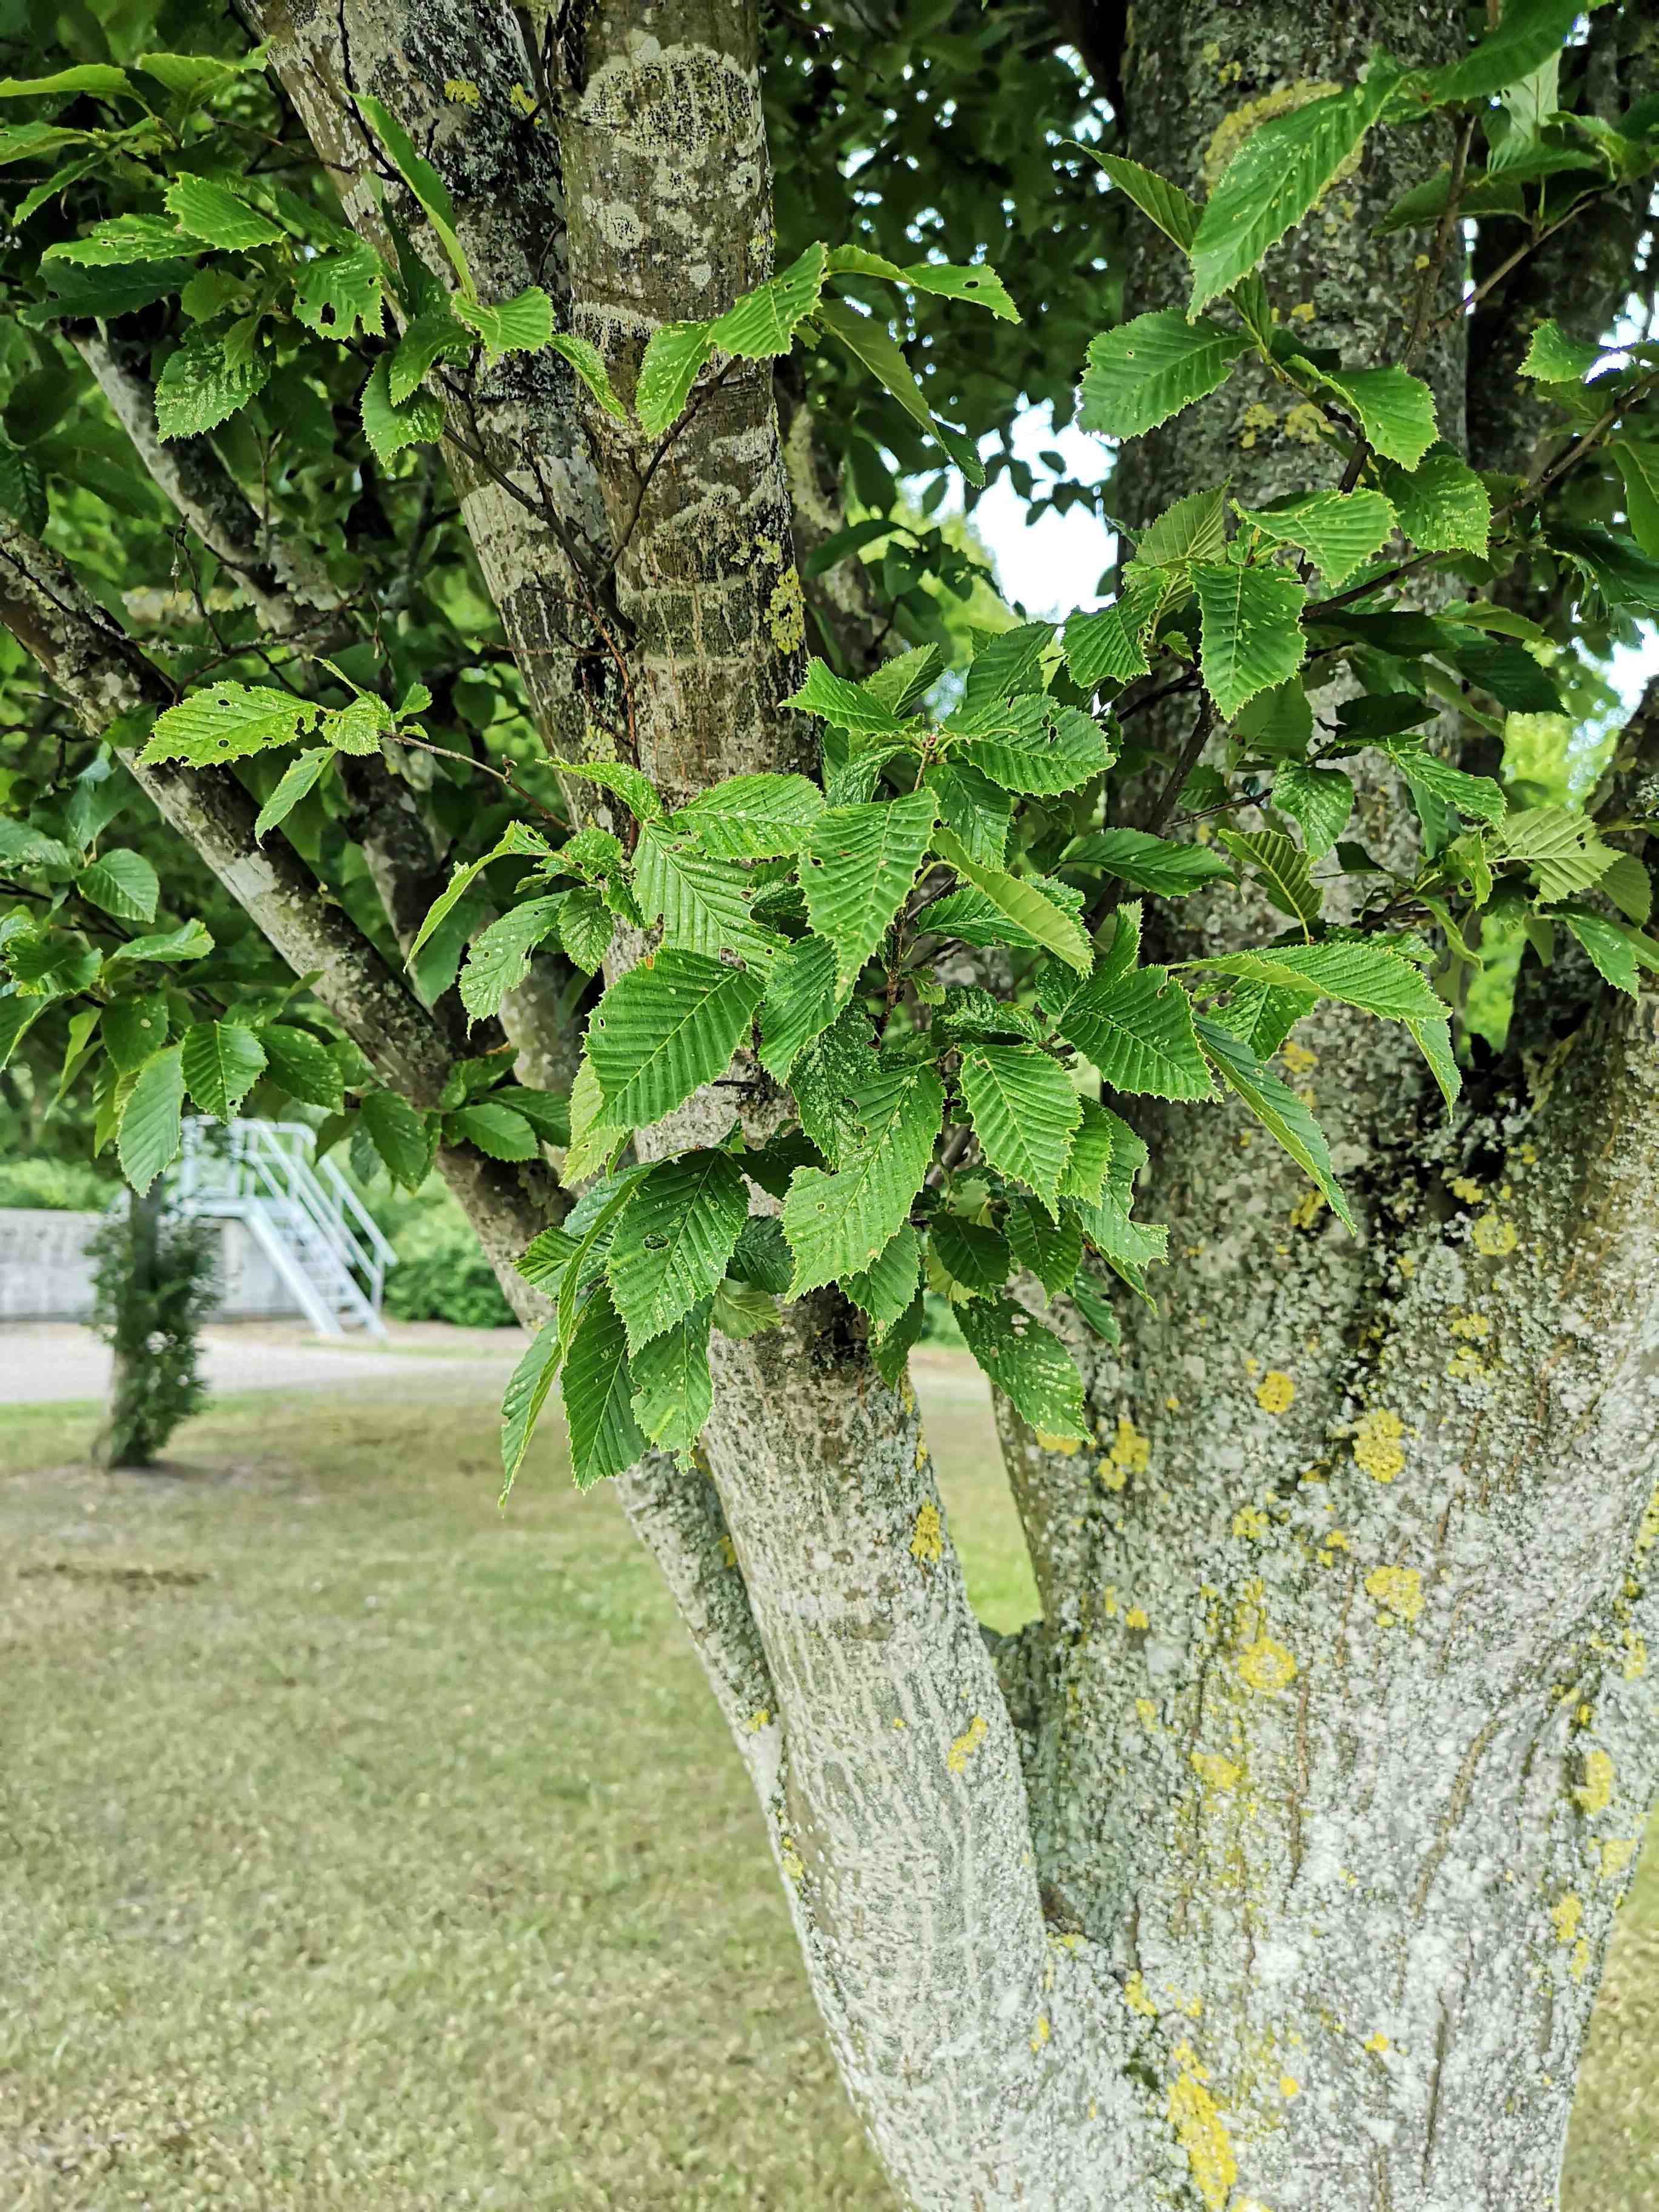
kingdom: Fungi
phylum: Basidiomycota
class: Agaricomycetes
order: Boletales
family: Boletaceae
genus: Caloboletus
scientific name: Caloboletus radicans
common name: rod-rørhat
